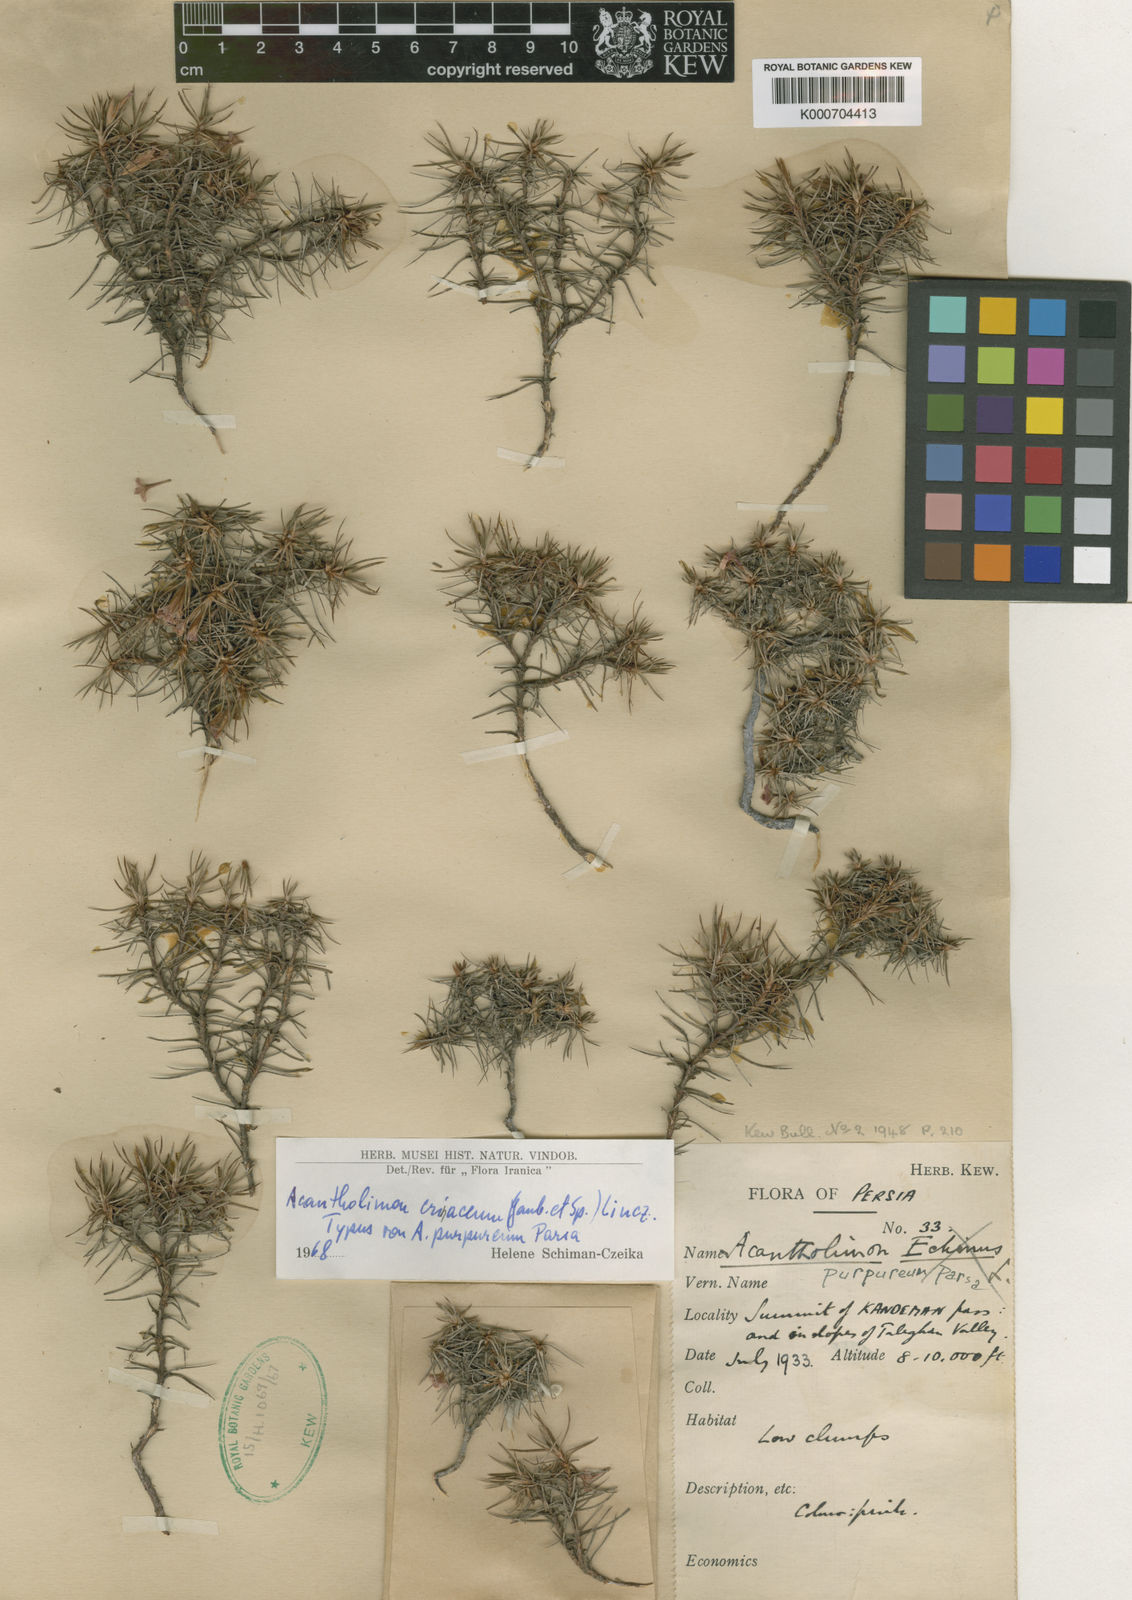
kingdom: Plantae
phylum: Tracheophyta
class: Magnoliopsida
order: Caryophyllales
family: Plumbaginaceae
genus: Acantholimon
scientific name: Acantholimon erinaceum
